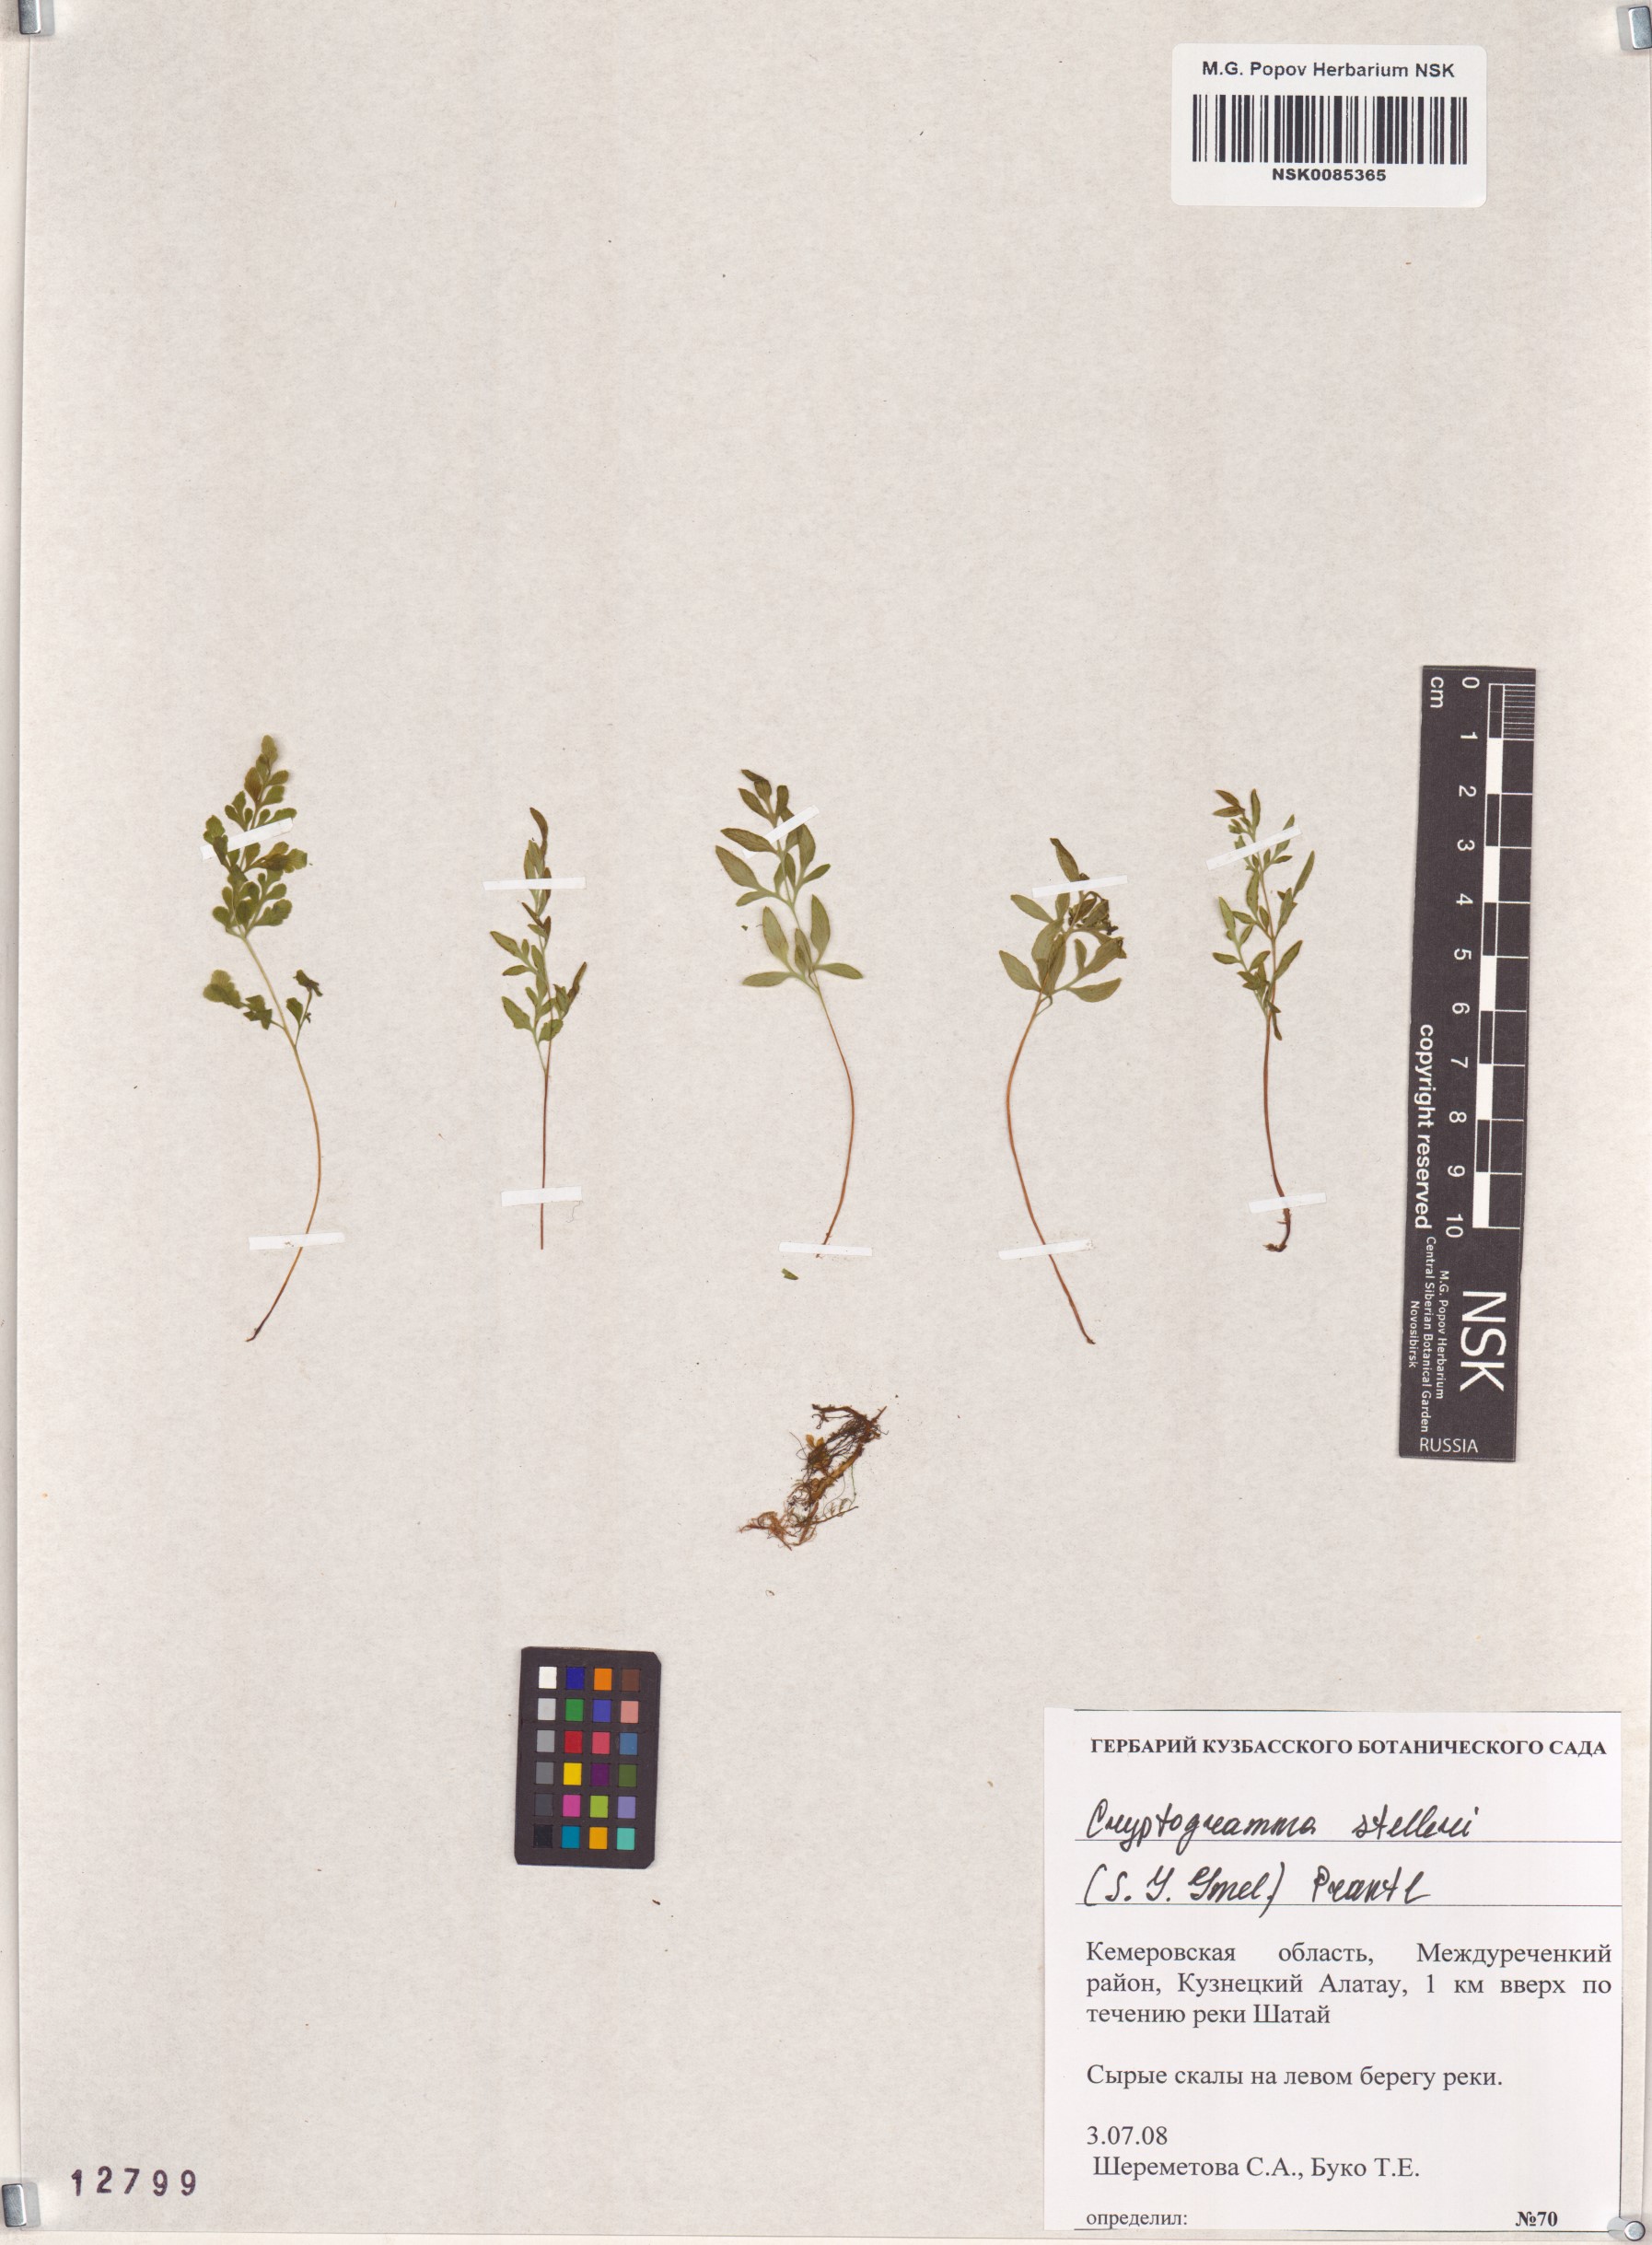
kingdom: Plantae
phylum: Tracheophyta
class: Polypodiopsida
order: Polypodiales
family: Pteridaceae
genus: Cryptogramma
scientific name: Cryptogramma stelleri
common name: Cliff-brake
